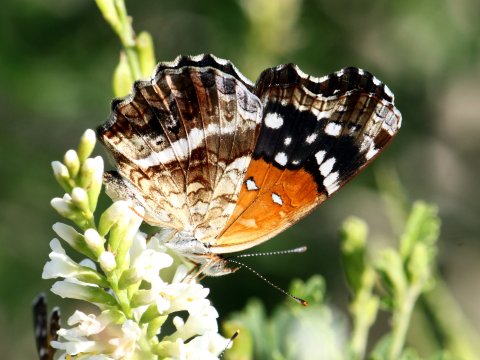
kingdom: Animalia
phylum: Arthropoda
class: Insecta
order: Lepidoptera
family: Nymphalidae
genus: Anthanassa
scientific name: Anthanassa texana
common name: Texan Crescent
